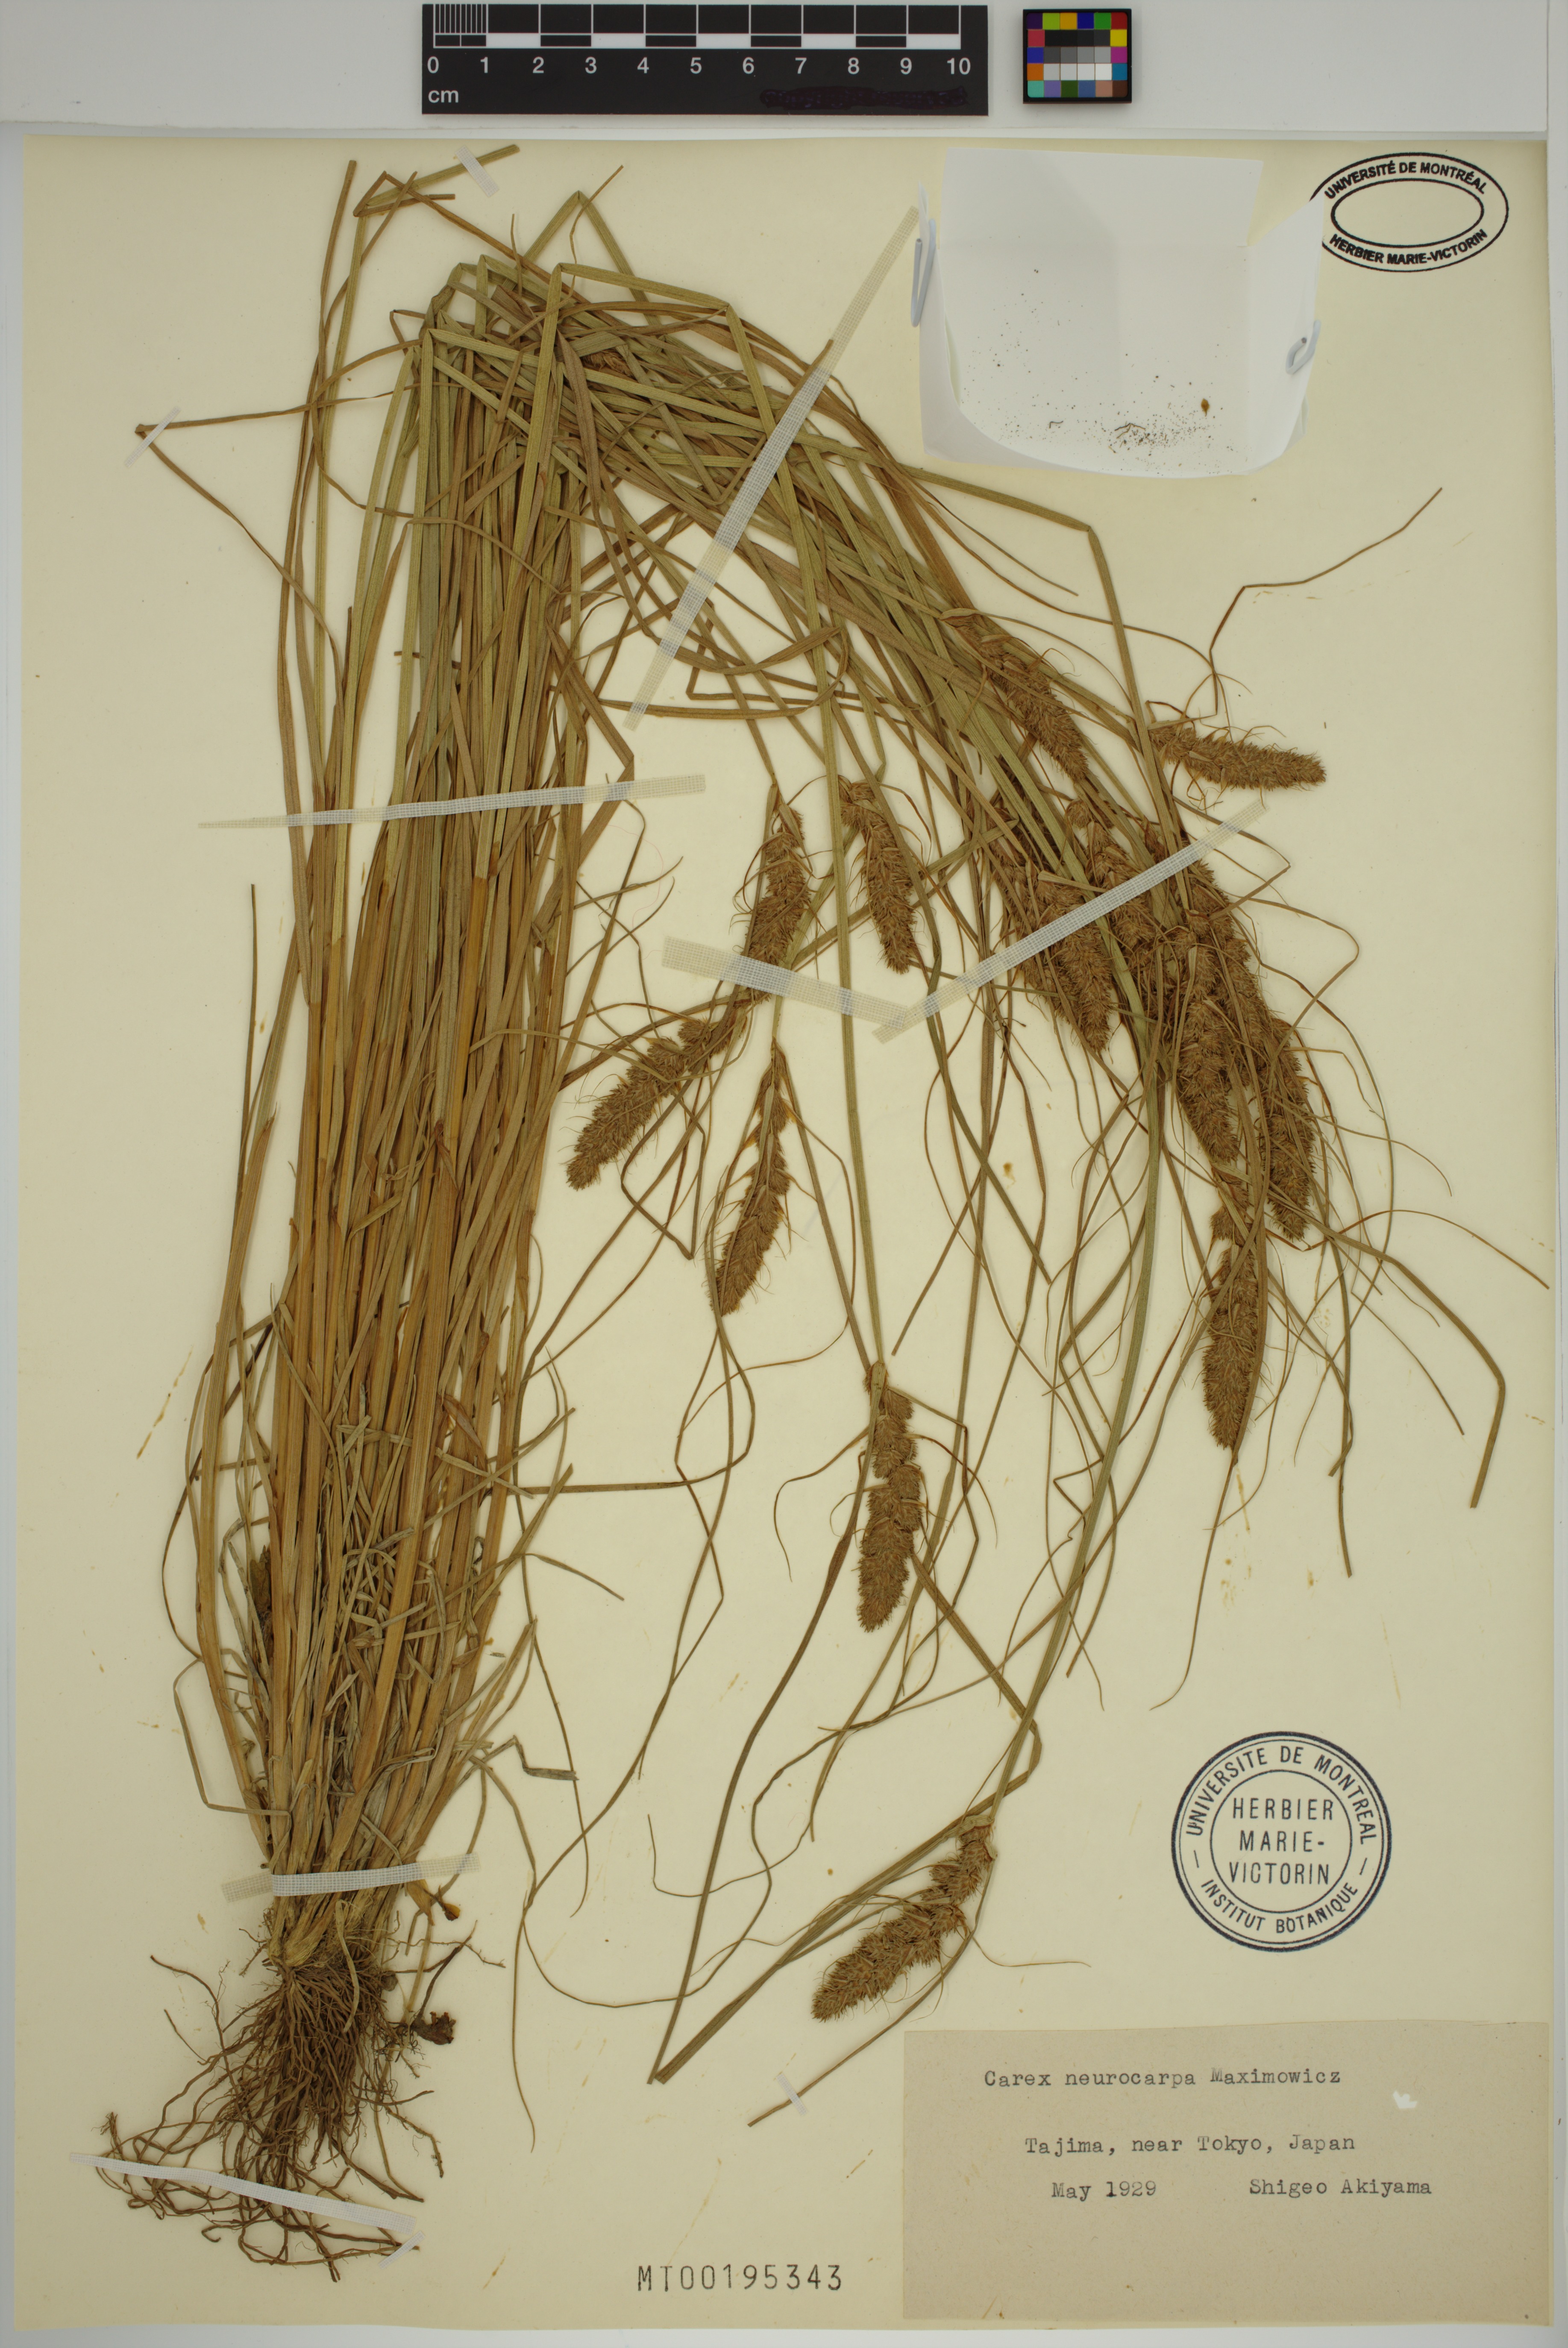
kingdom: Plantae
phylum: Tracheophyta
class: Liliopsida
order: Poales
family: Cyperaceae
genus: Carex
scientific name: Carex neurocarpa
